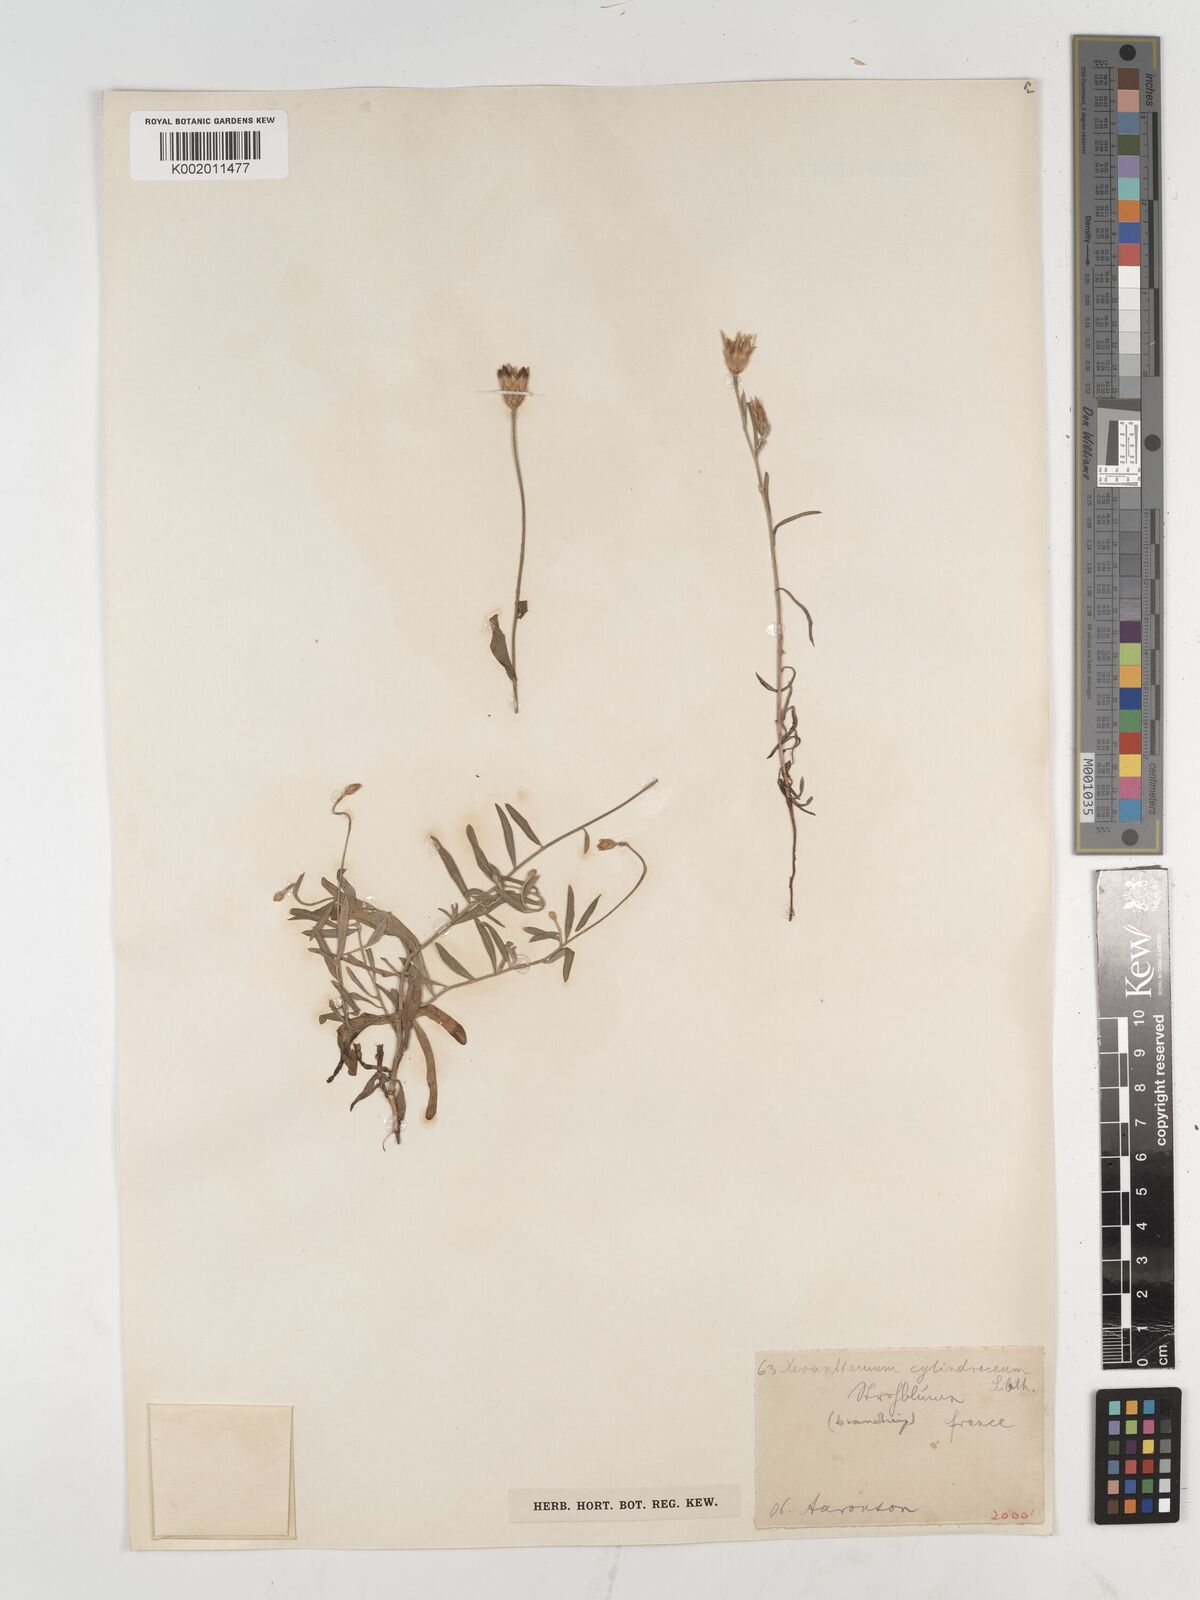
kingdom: Plantae
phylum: Tracheophyta
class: Magnoliopsida
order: Asterales
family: Asteraceae
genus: Xeranthemum
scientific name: Xeranthemum cylindraceum
